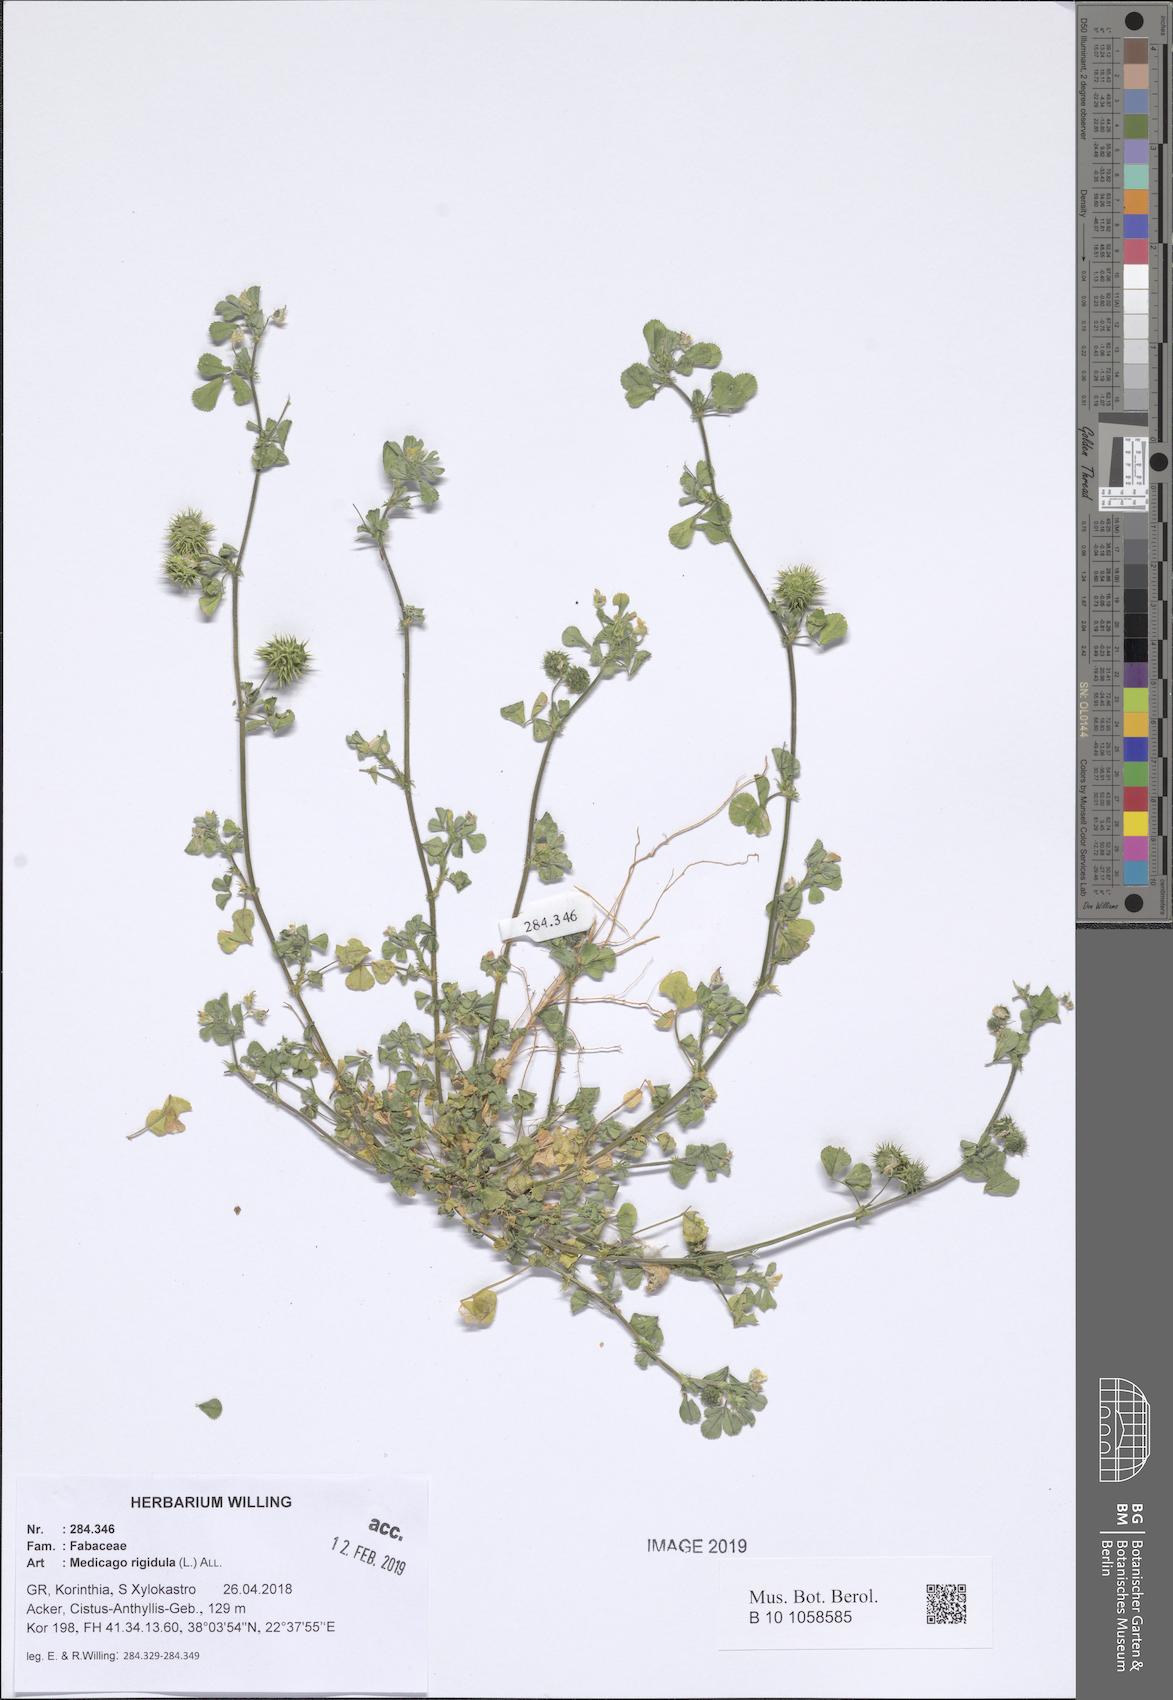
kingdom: Plantae
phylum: Tracheophyta
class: Magnoliopsida
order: Fabales
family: Fabaceae
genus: Medicago
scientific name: Medicago rigidula
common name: Tifton medic
